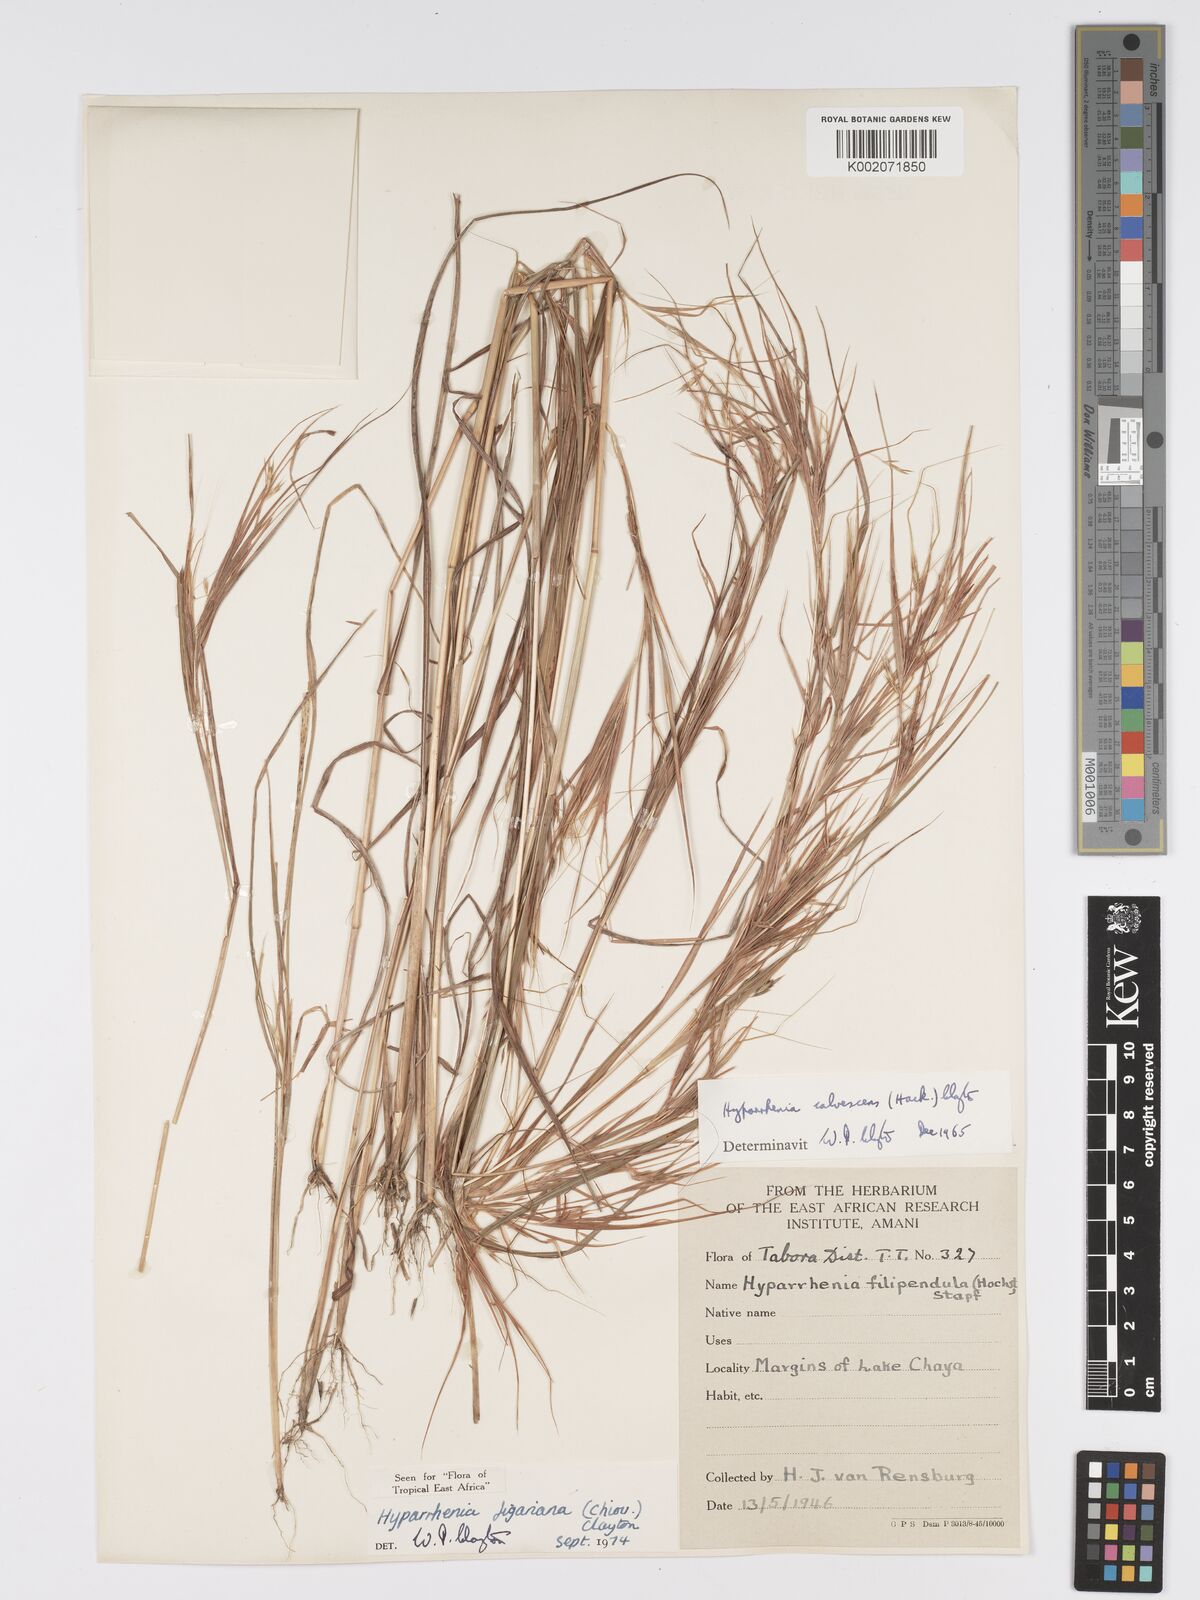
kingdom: Plantae
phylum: Tracheophyta
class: Liliopsida
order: Poales
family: Poaceae
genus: Hyparrhenia
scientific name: Hyparrhenia figariana
